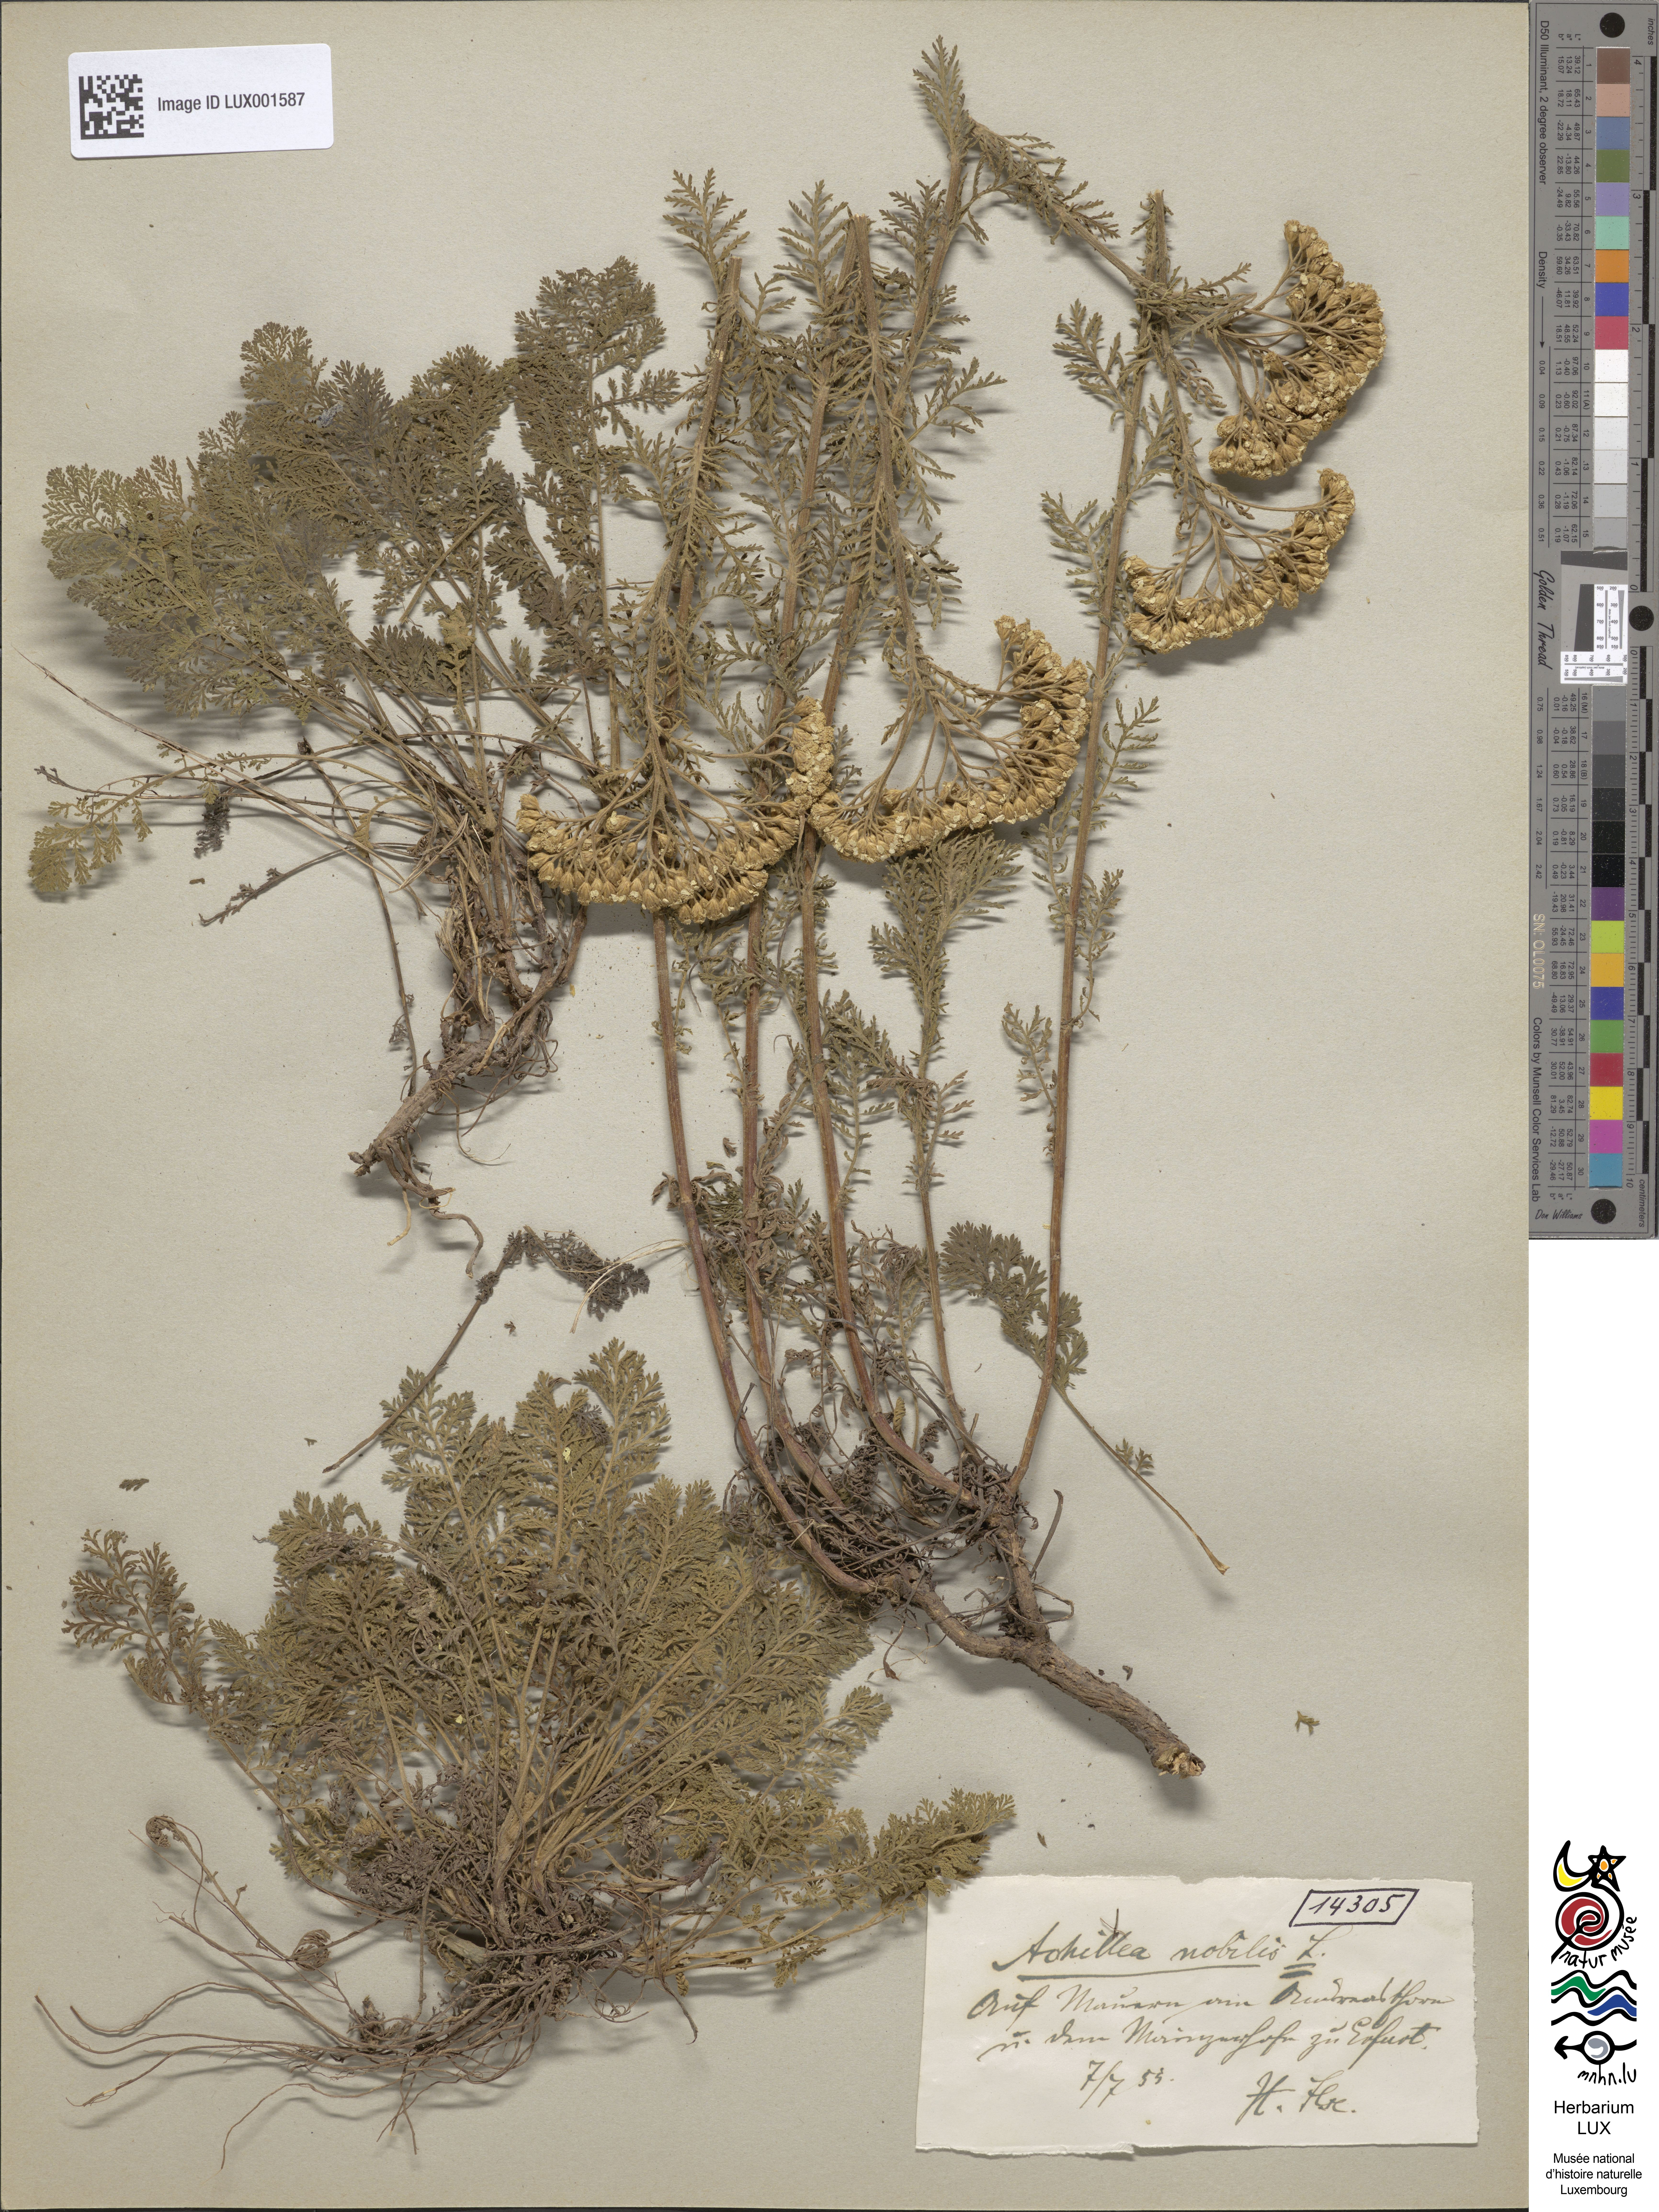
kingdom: Plantae
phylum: Tracheophyta
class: Magnoliopsida
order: Asterales
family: Asteraceae
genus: Achillea
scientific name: Achillea nobilis
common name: Noble yarrow
